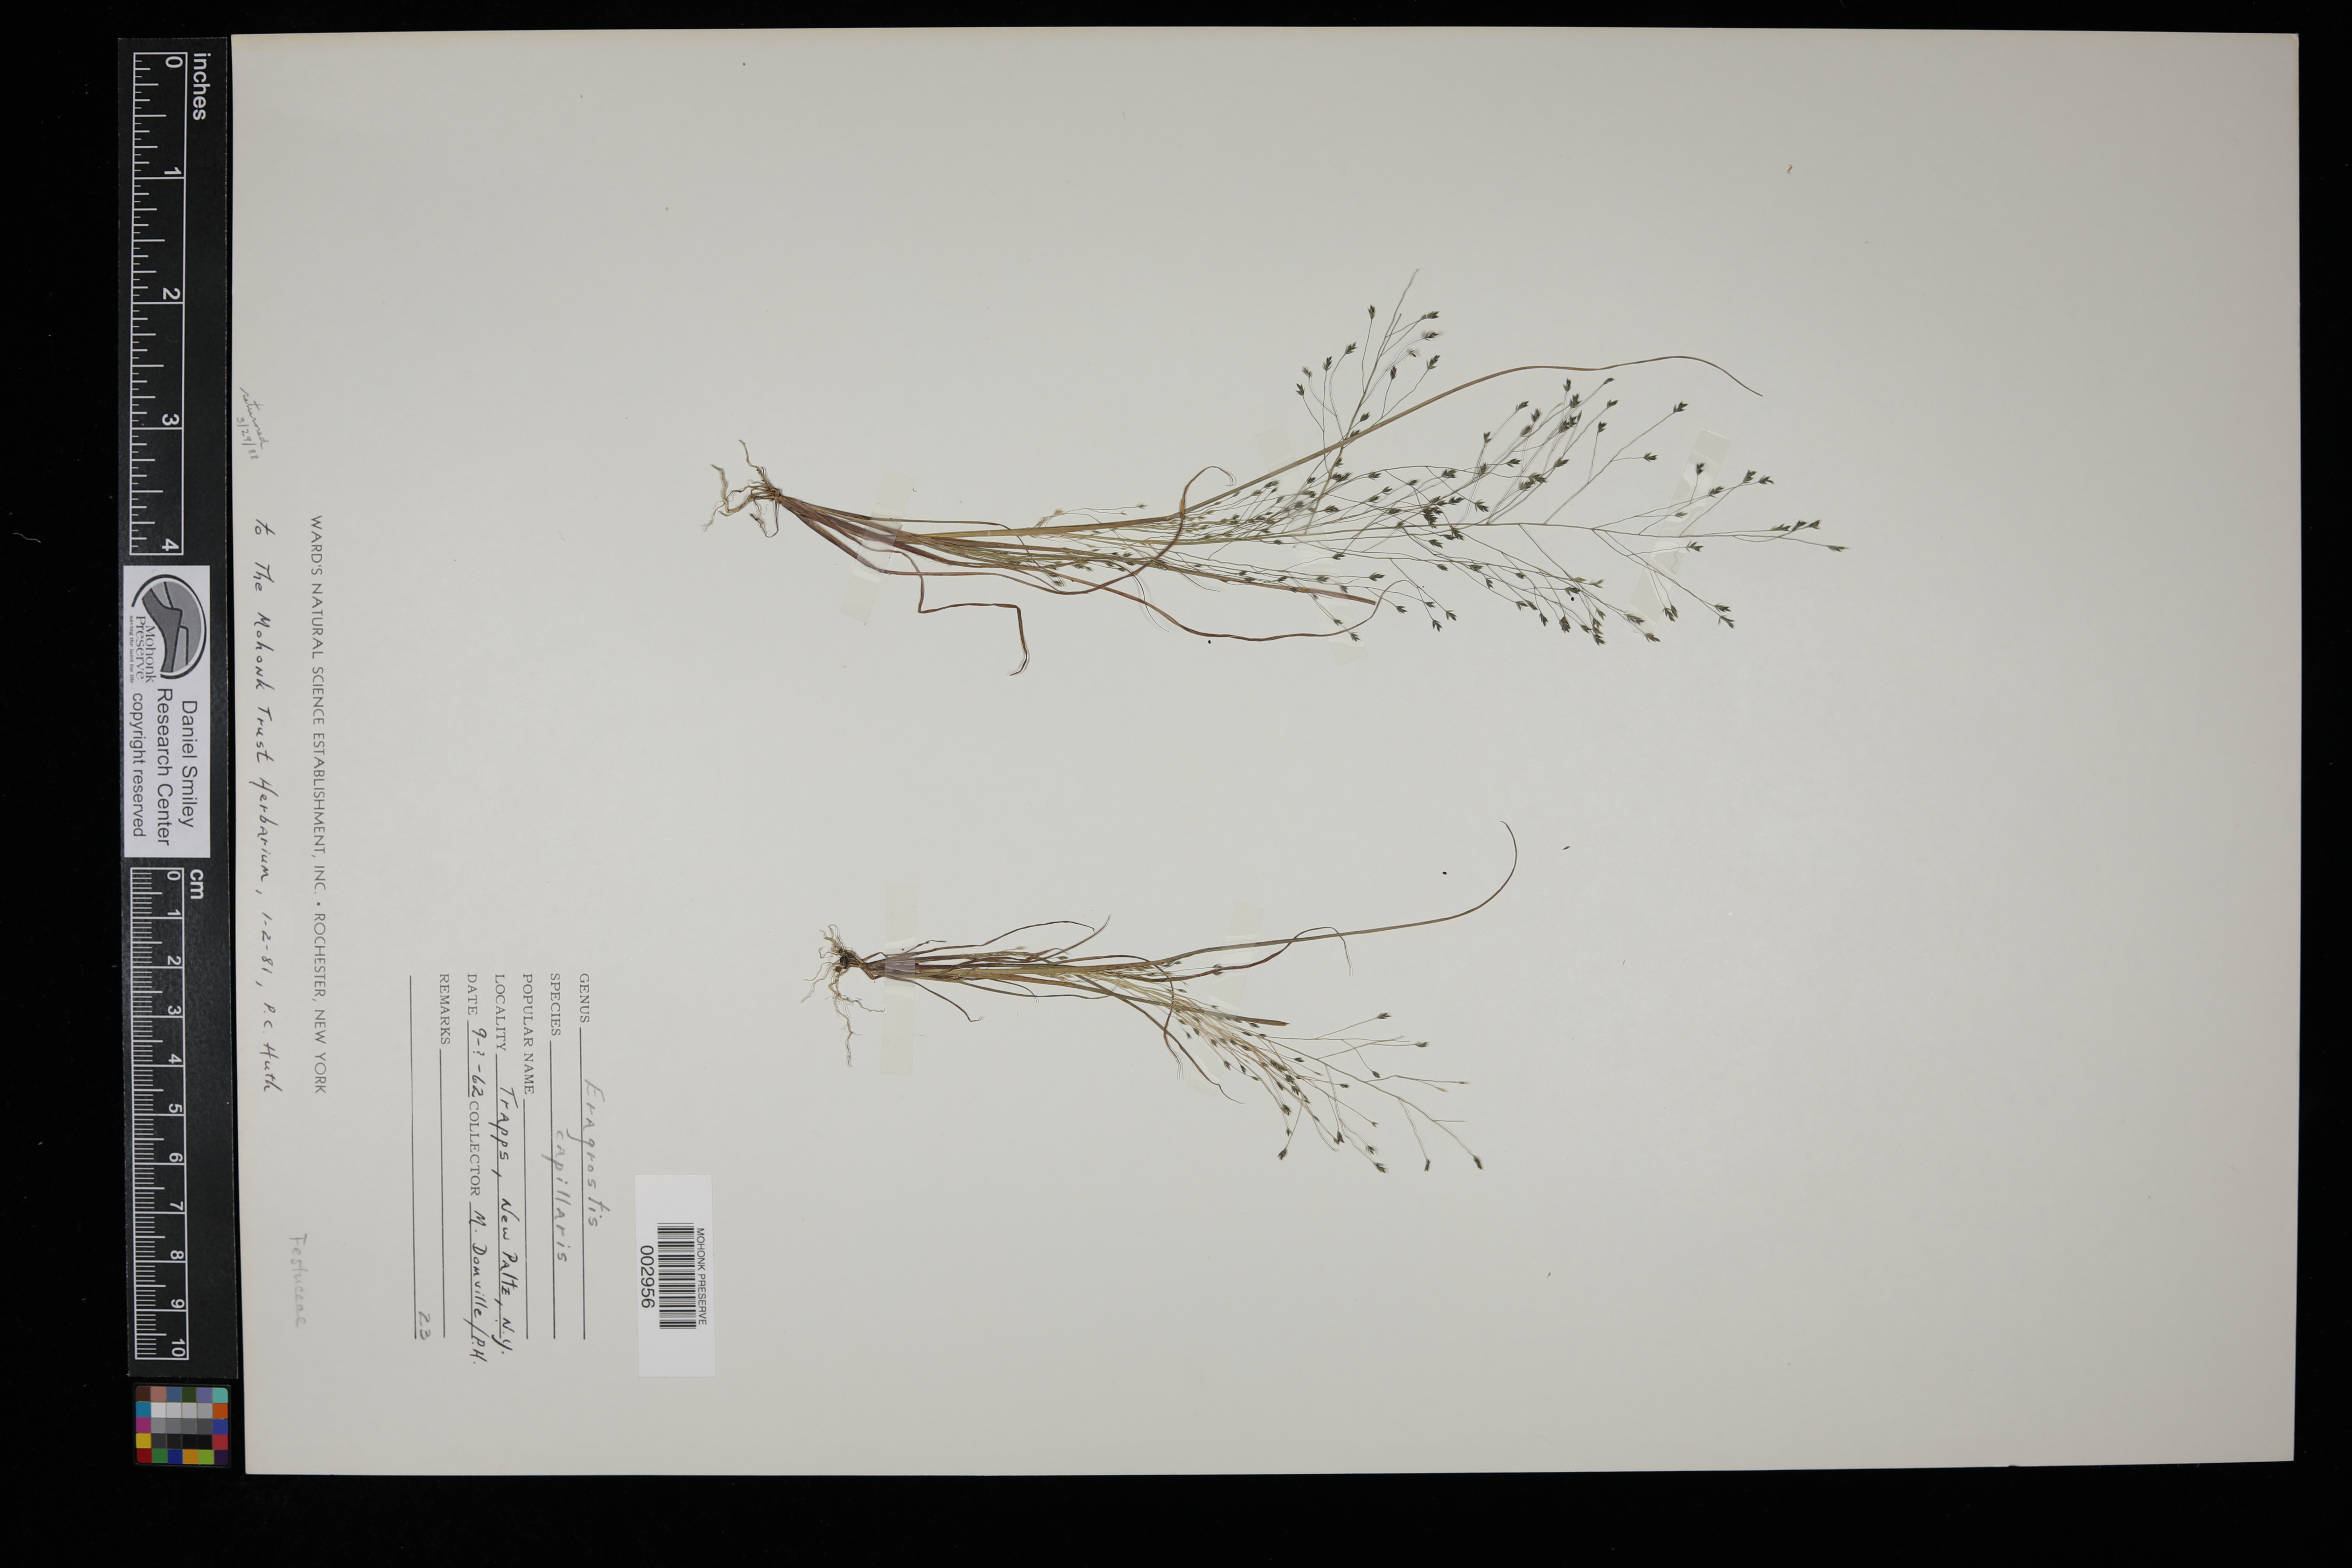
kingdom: Plantae
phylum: Tracheophyta
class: Liliopsida
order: Poales
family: Poaceae
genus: Eragrostis
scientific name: Eragrostis capillaris
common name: Hair-like lovegrass
